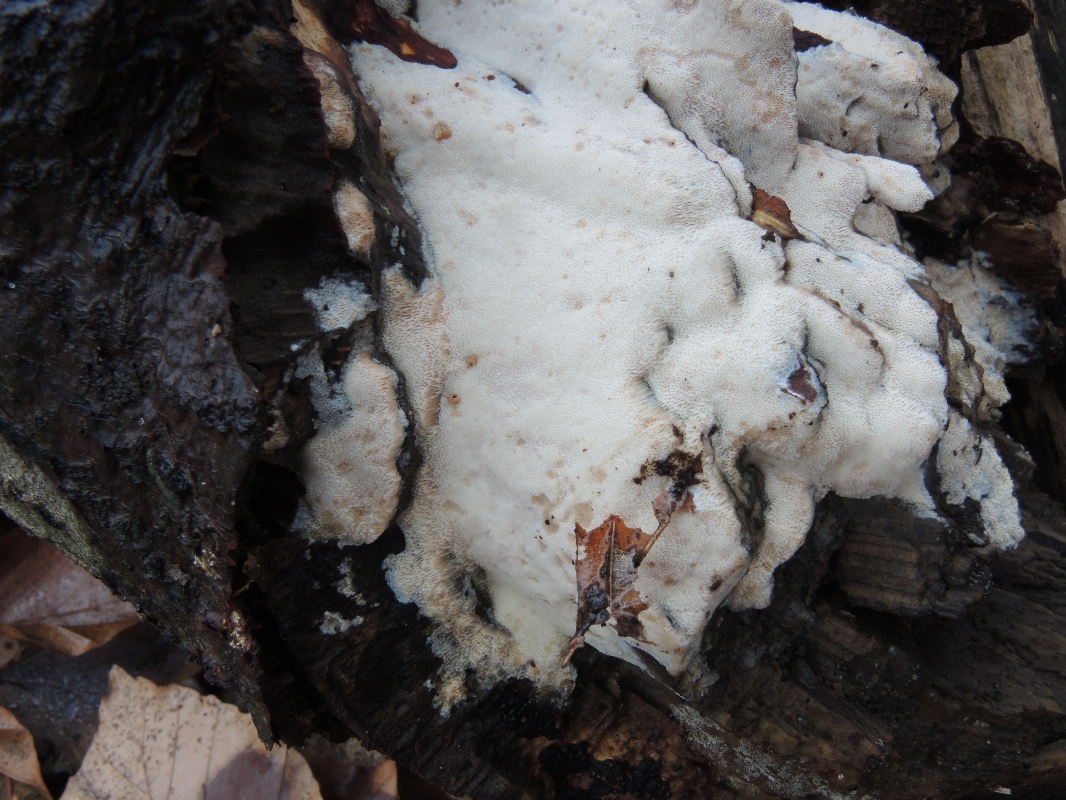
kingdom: Fungi
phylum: Basidiomycota
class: Agaricomycetes
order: Polyporales
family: Meruliaceae
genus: Mycoacia
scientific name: Mycoacia gilvescens
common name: rosa pastelporesvamp
